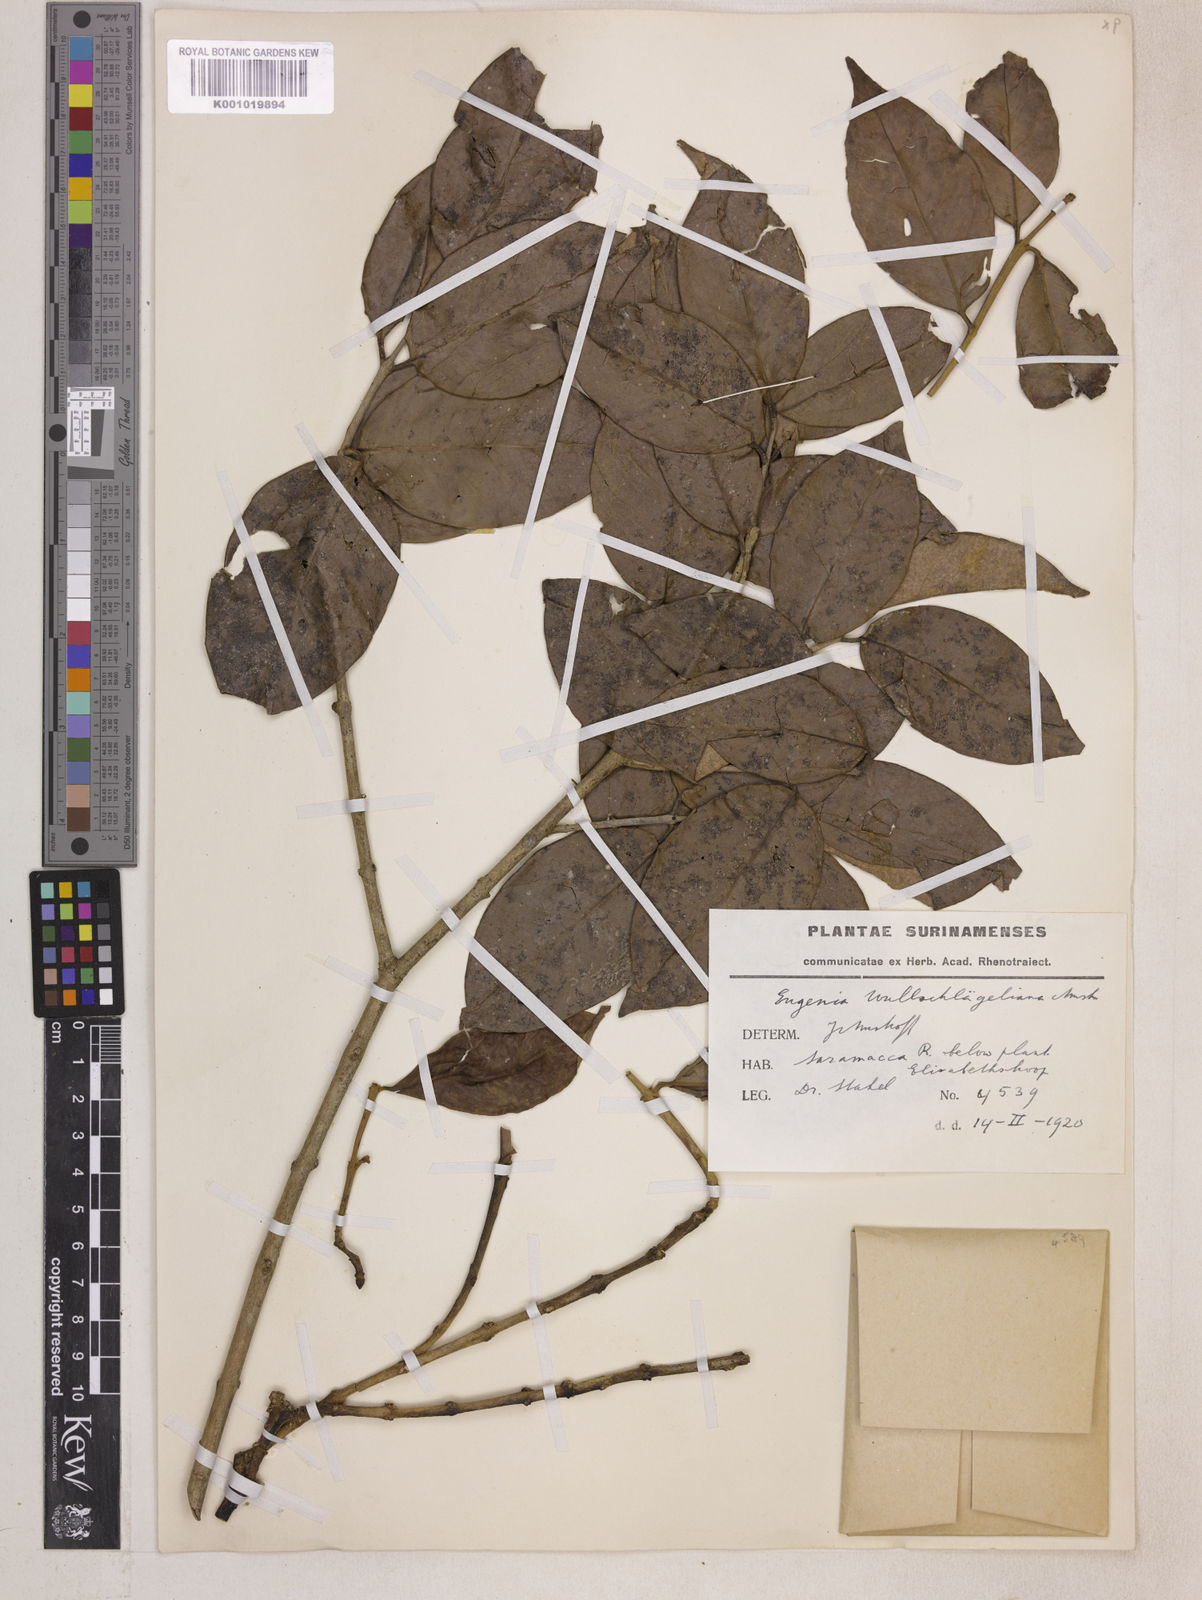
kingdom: Plantae
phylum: Tracheophyta
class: Magnoliopsida
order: Myrtales
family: Myrtaceae
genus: Eugenia
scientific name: Eugenia wullschlaegeliana
